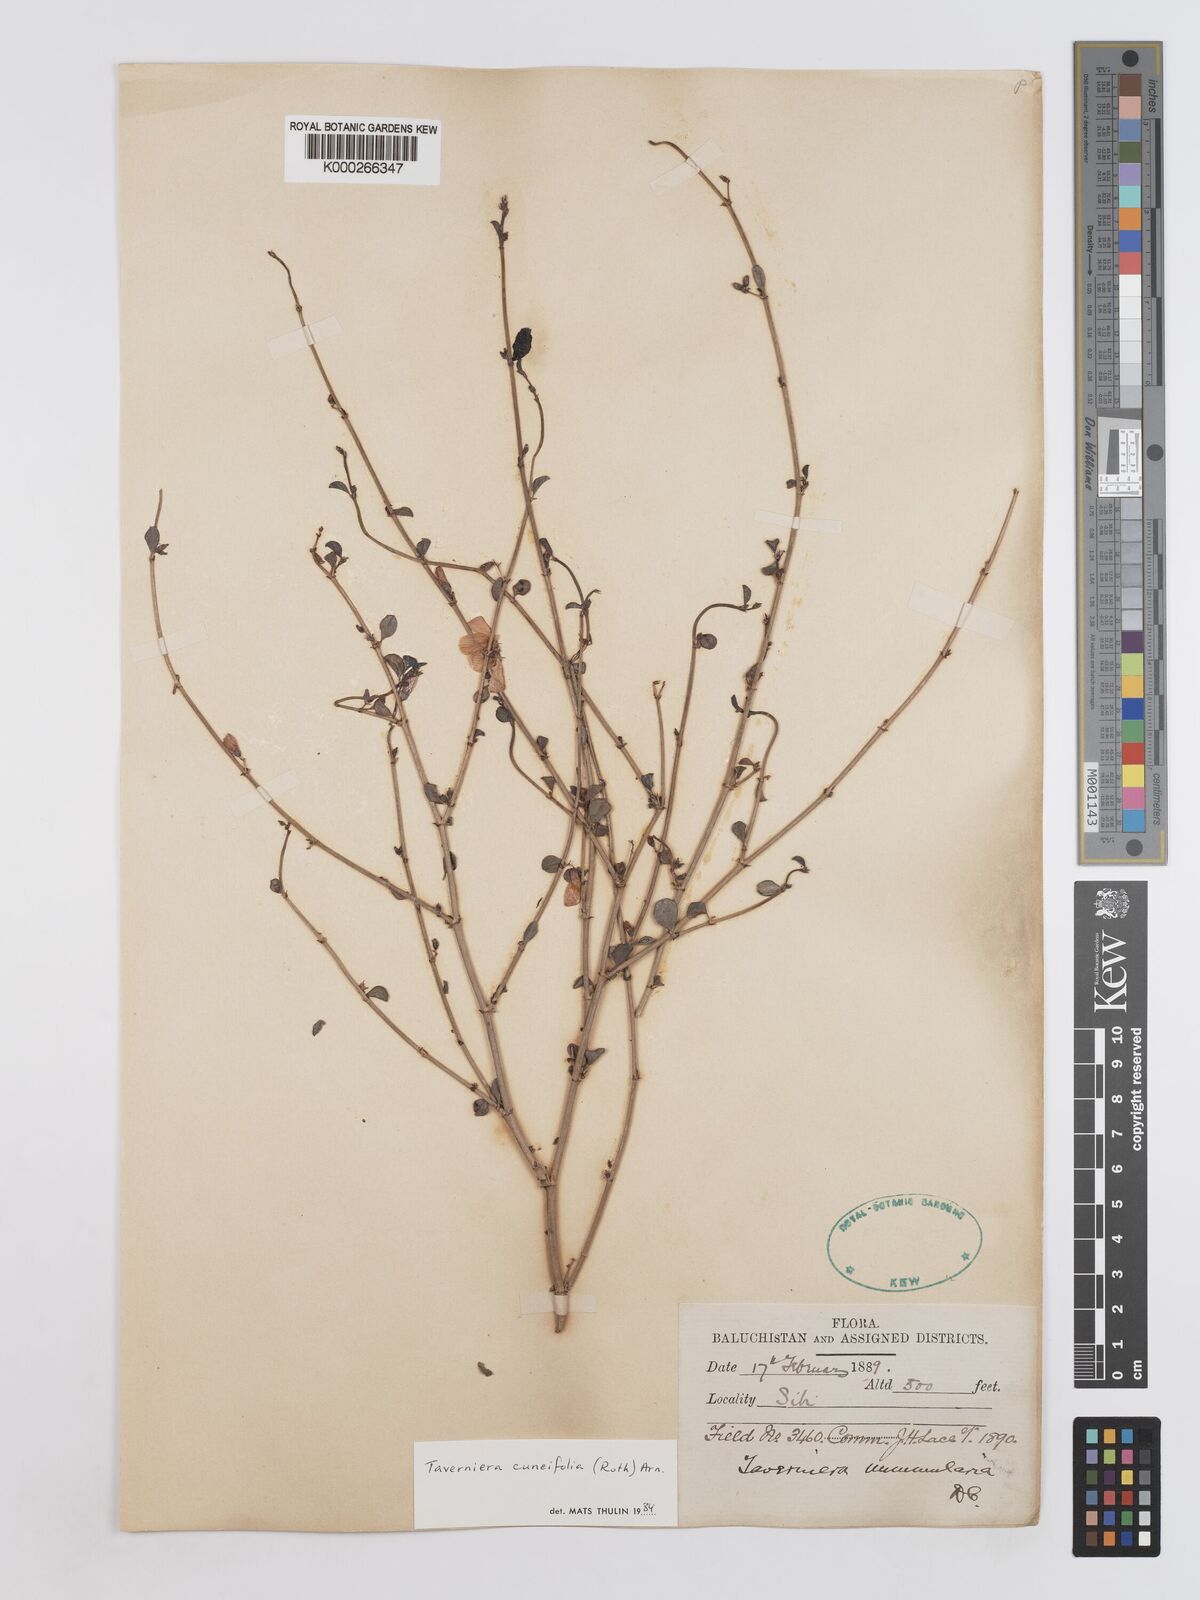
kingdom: Plantae
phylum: Tracheophyta
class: Magnoliopsida
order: Fabales
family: Fabaceae
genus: Taverniera
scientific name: Taverniera cuneifolia
